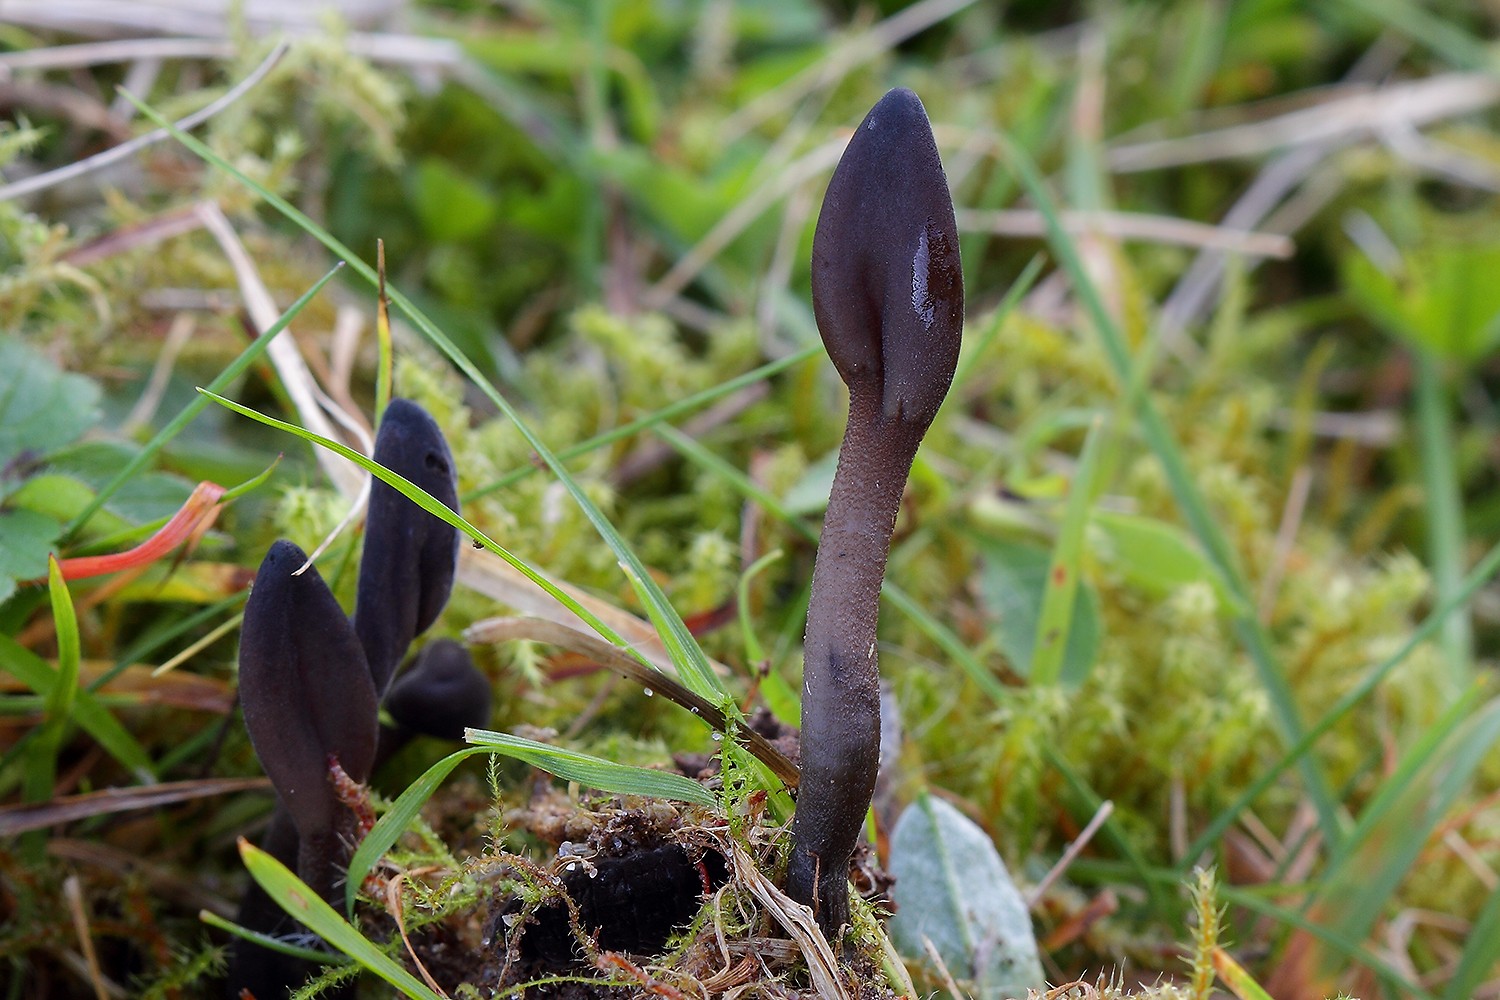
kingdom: Fungi
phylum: Ascomycota
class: Geoglossomycetes
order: Geoglossales
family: Geoglossaceae
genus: Geoglossum
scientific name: Geoglossum fallax
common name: småskællet jordtunge
